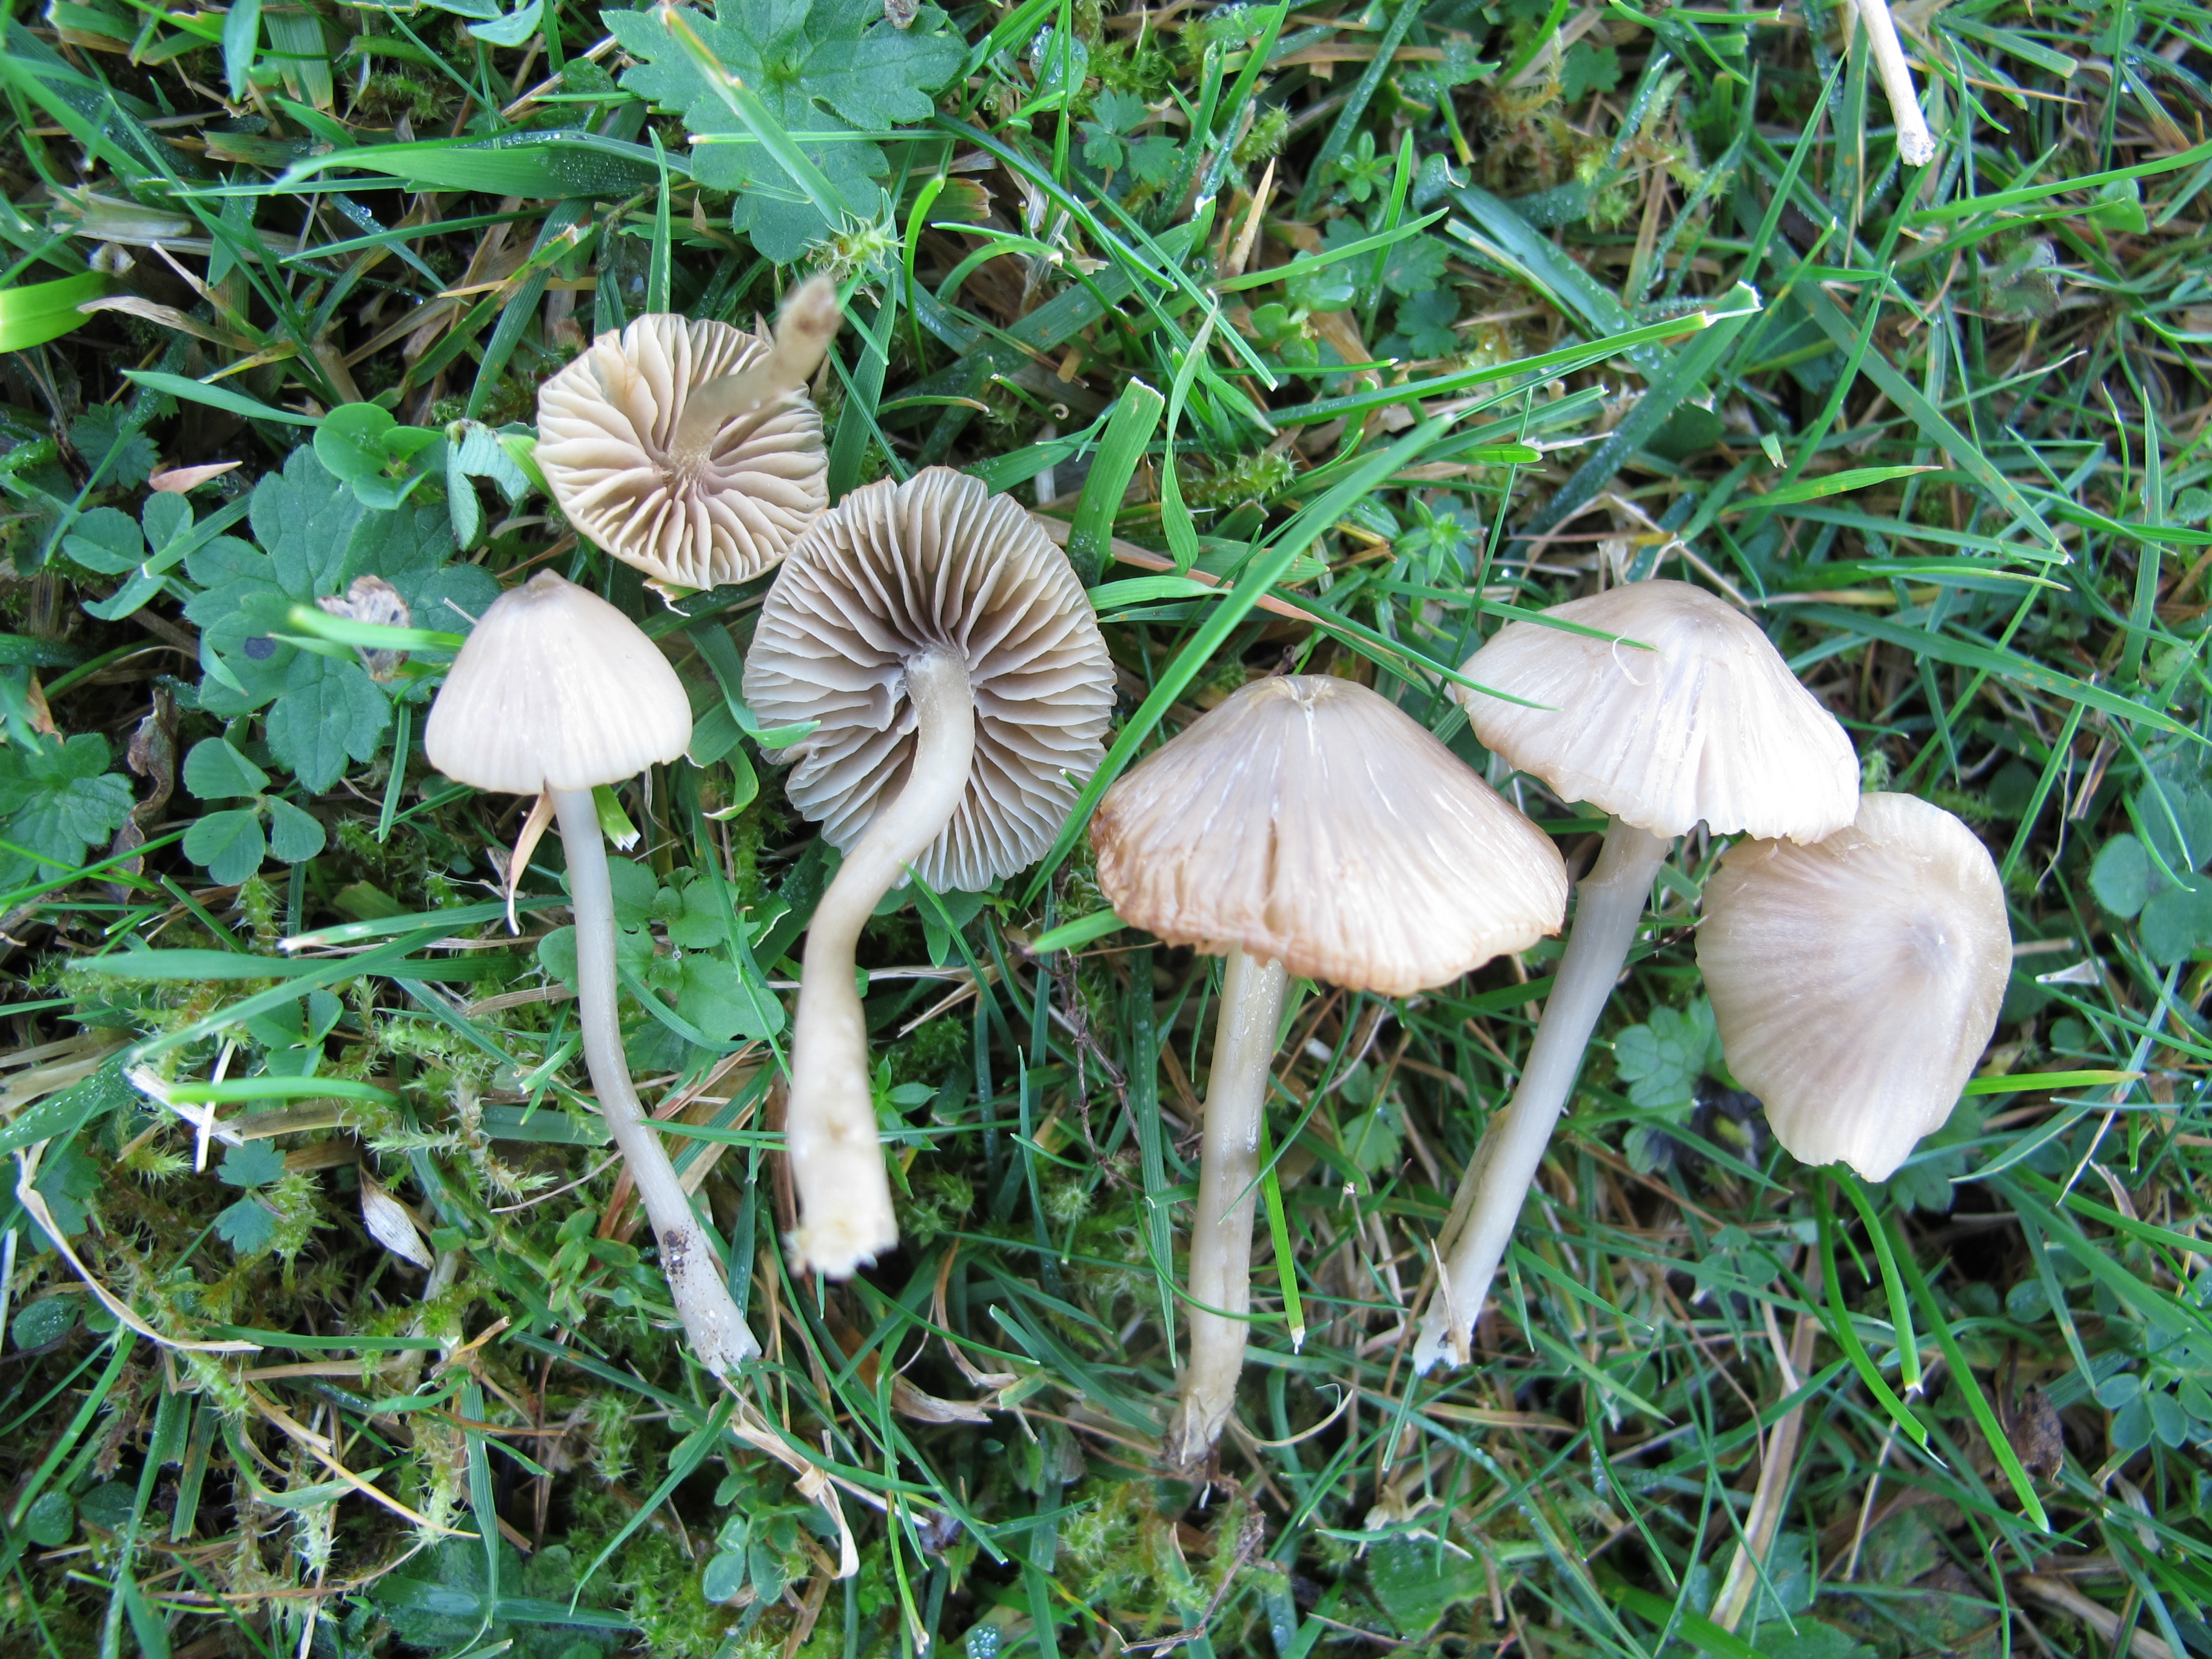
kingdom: Fungi
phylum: Basidiomycota
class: Agaricomycetes
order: Agaricales
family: Entolomataceae
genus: Entoloma
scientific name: Entoloma pentagonale
